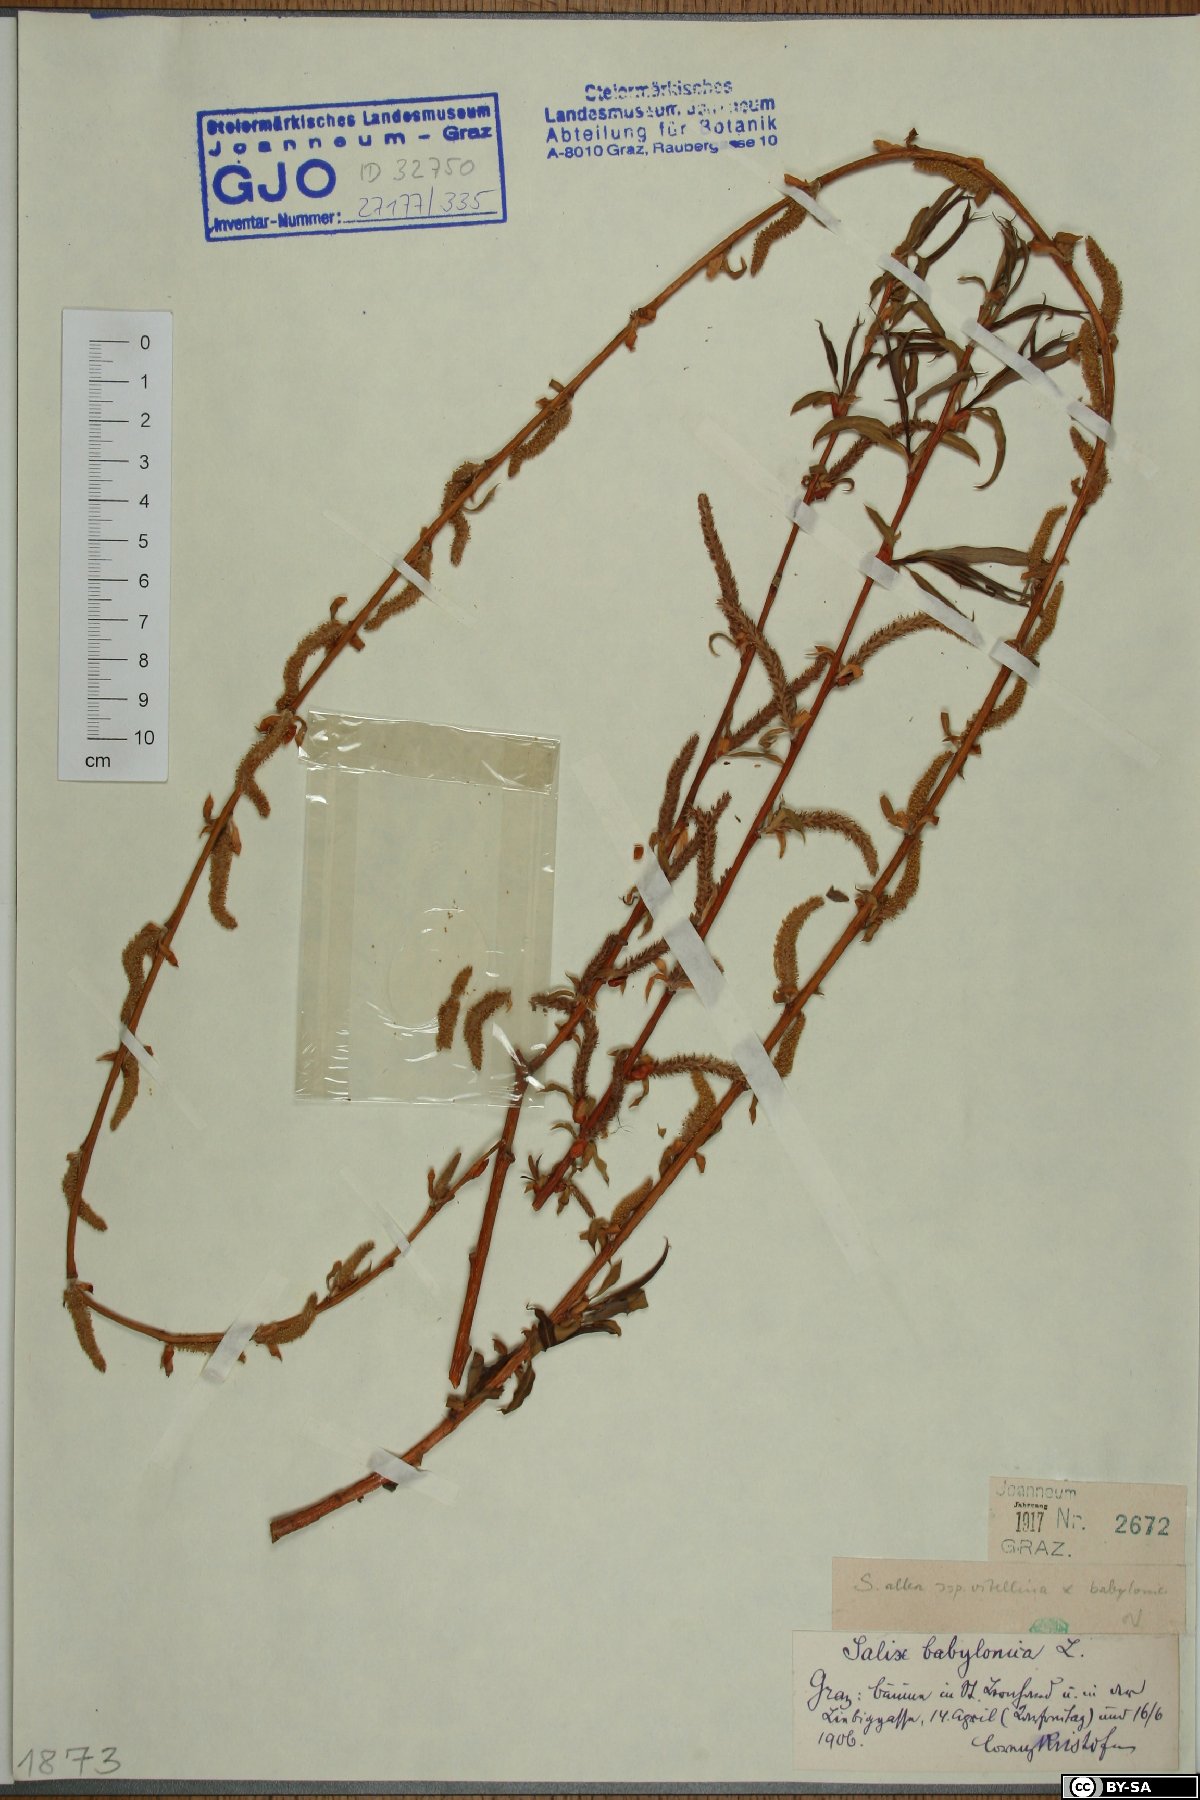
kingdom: Plantae
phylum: Tracheophyta
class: Magnoliopsida
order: Malpighiales
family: Salicaceae
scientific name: Salicaceae
